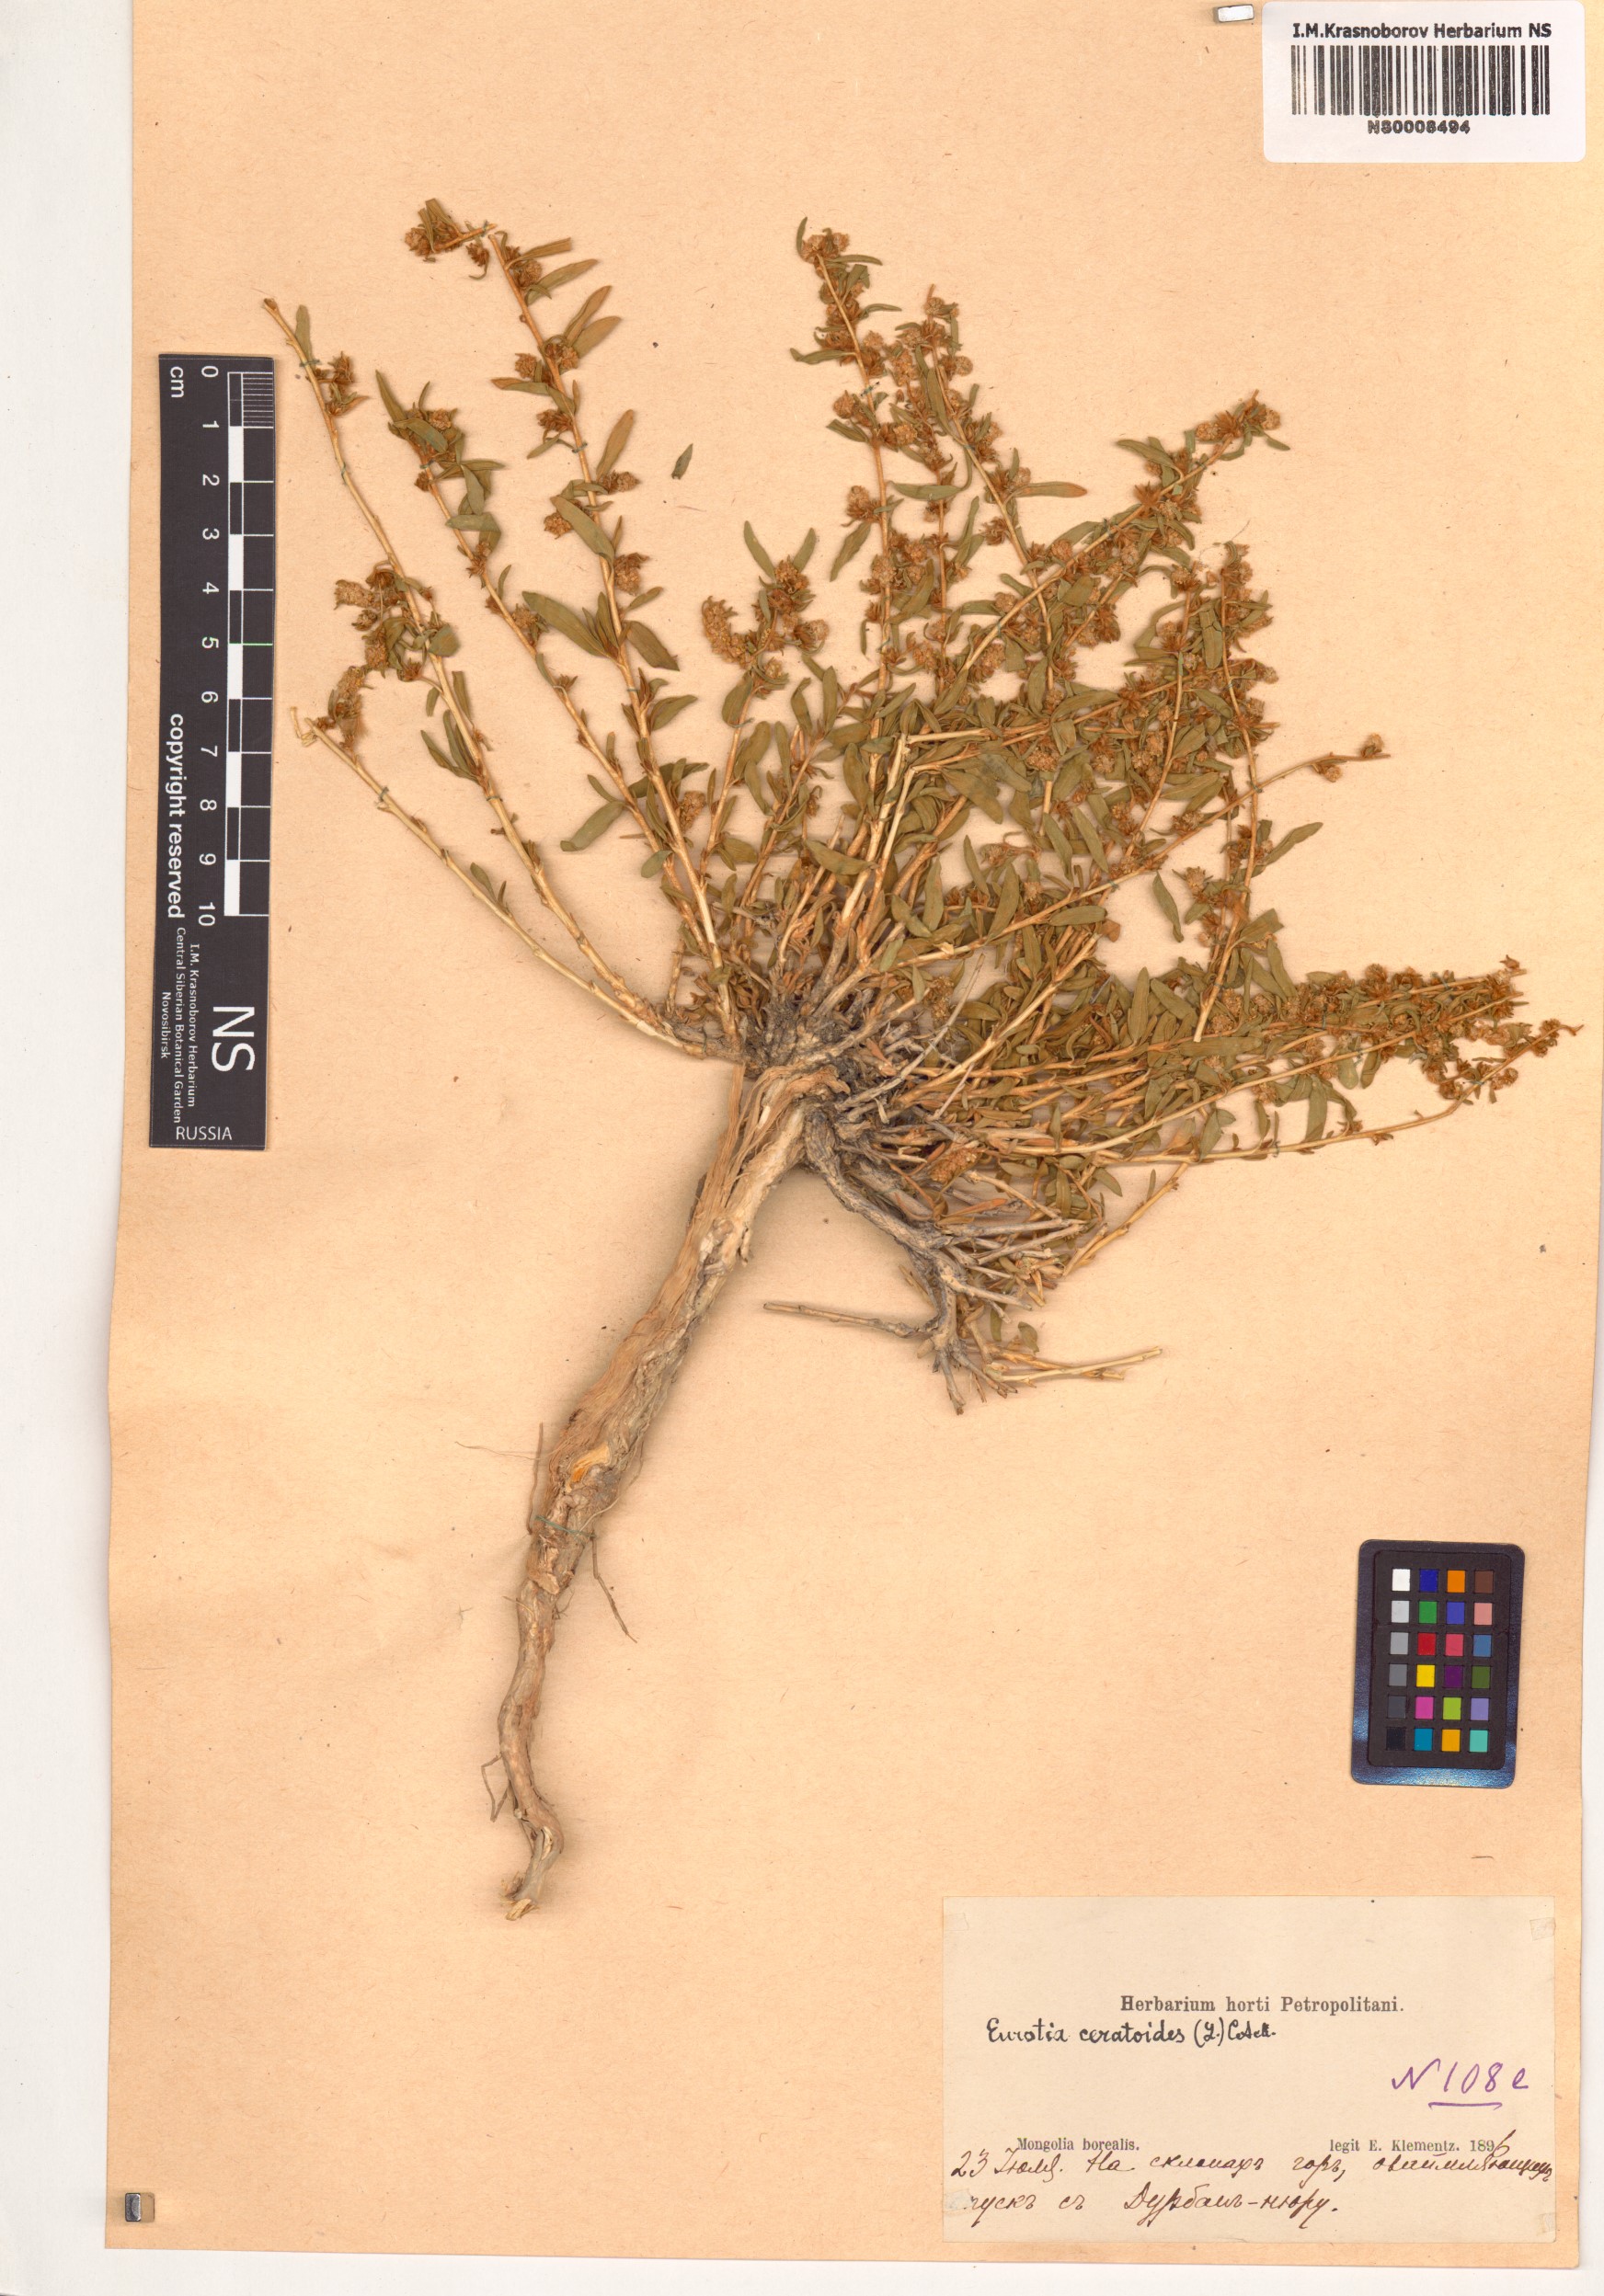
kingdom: Plantae
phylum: Tracheophyta
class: Magnoliopsida
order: Caryophyllales
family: Amaranthaceae
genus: Krascheninnikovia
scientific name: Krascheninnikovia ceratoides
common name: Pamirian winterfat
